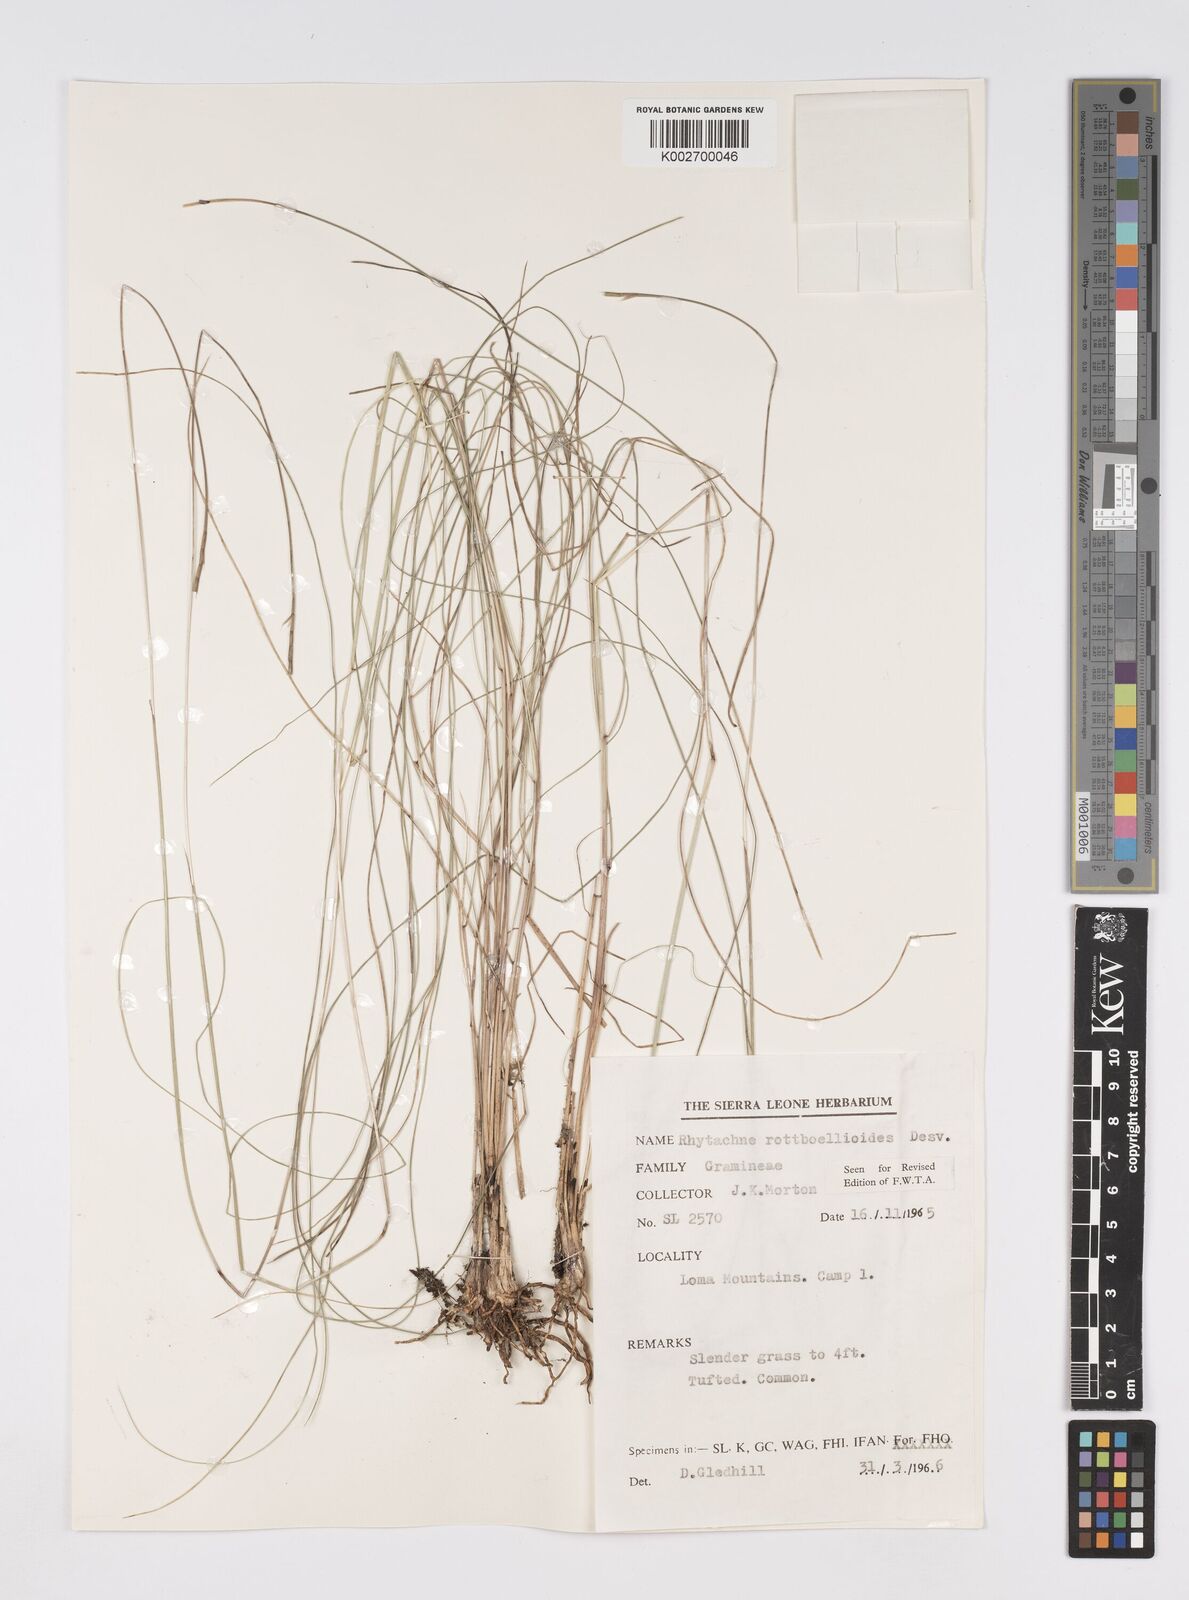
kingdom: Plantae
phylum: Tracheophyta
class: Liliopsida
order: Poales
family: Poaceae
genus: Rhytachne
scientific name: Rhytachne rottboellioides
